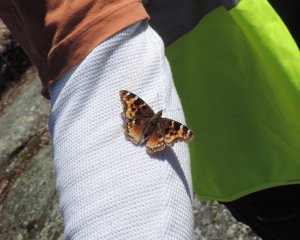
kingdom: Animalia
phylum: Arthropoda
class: Insecta
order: Lepidoptera
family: Nymphalidae
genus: Polygonia
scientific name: Polygonia vaualbum
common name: Compton Tortoiseshell
